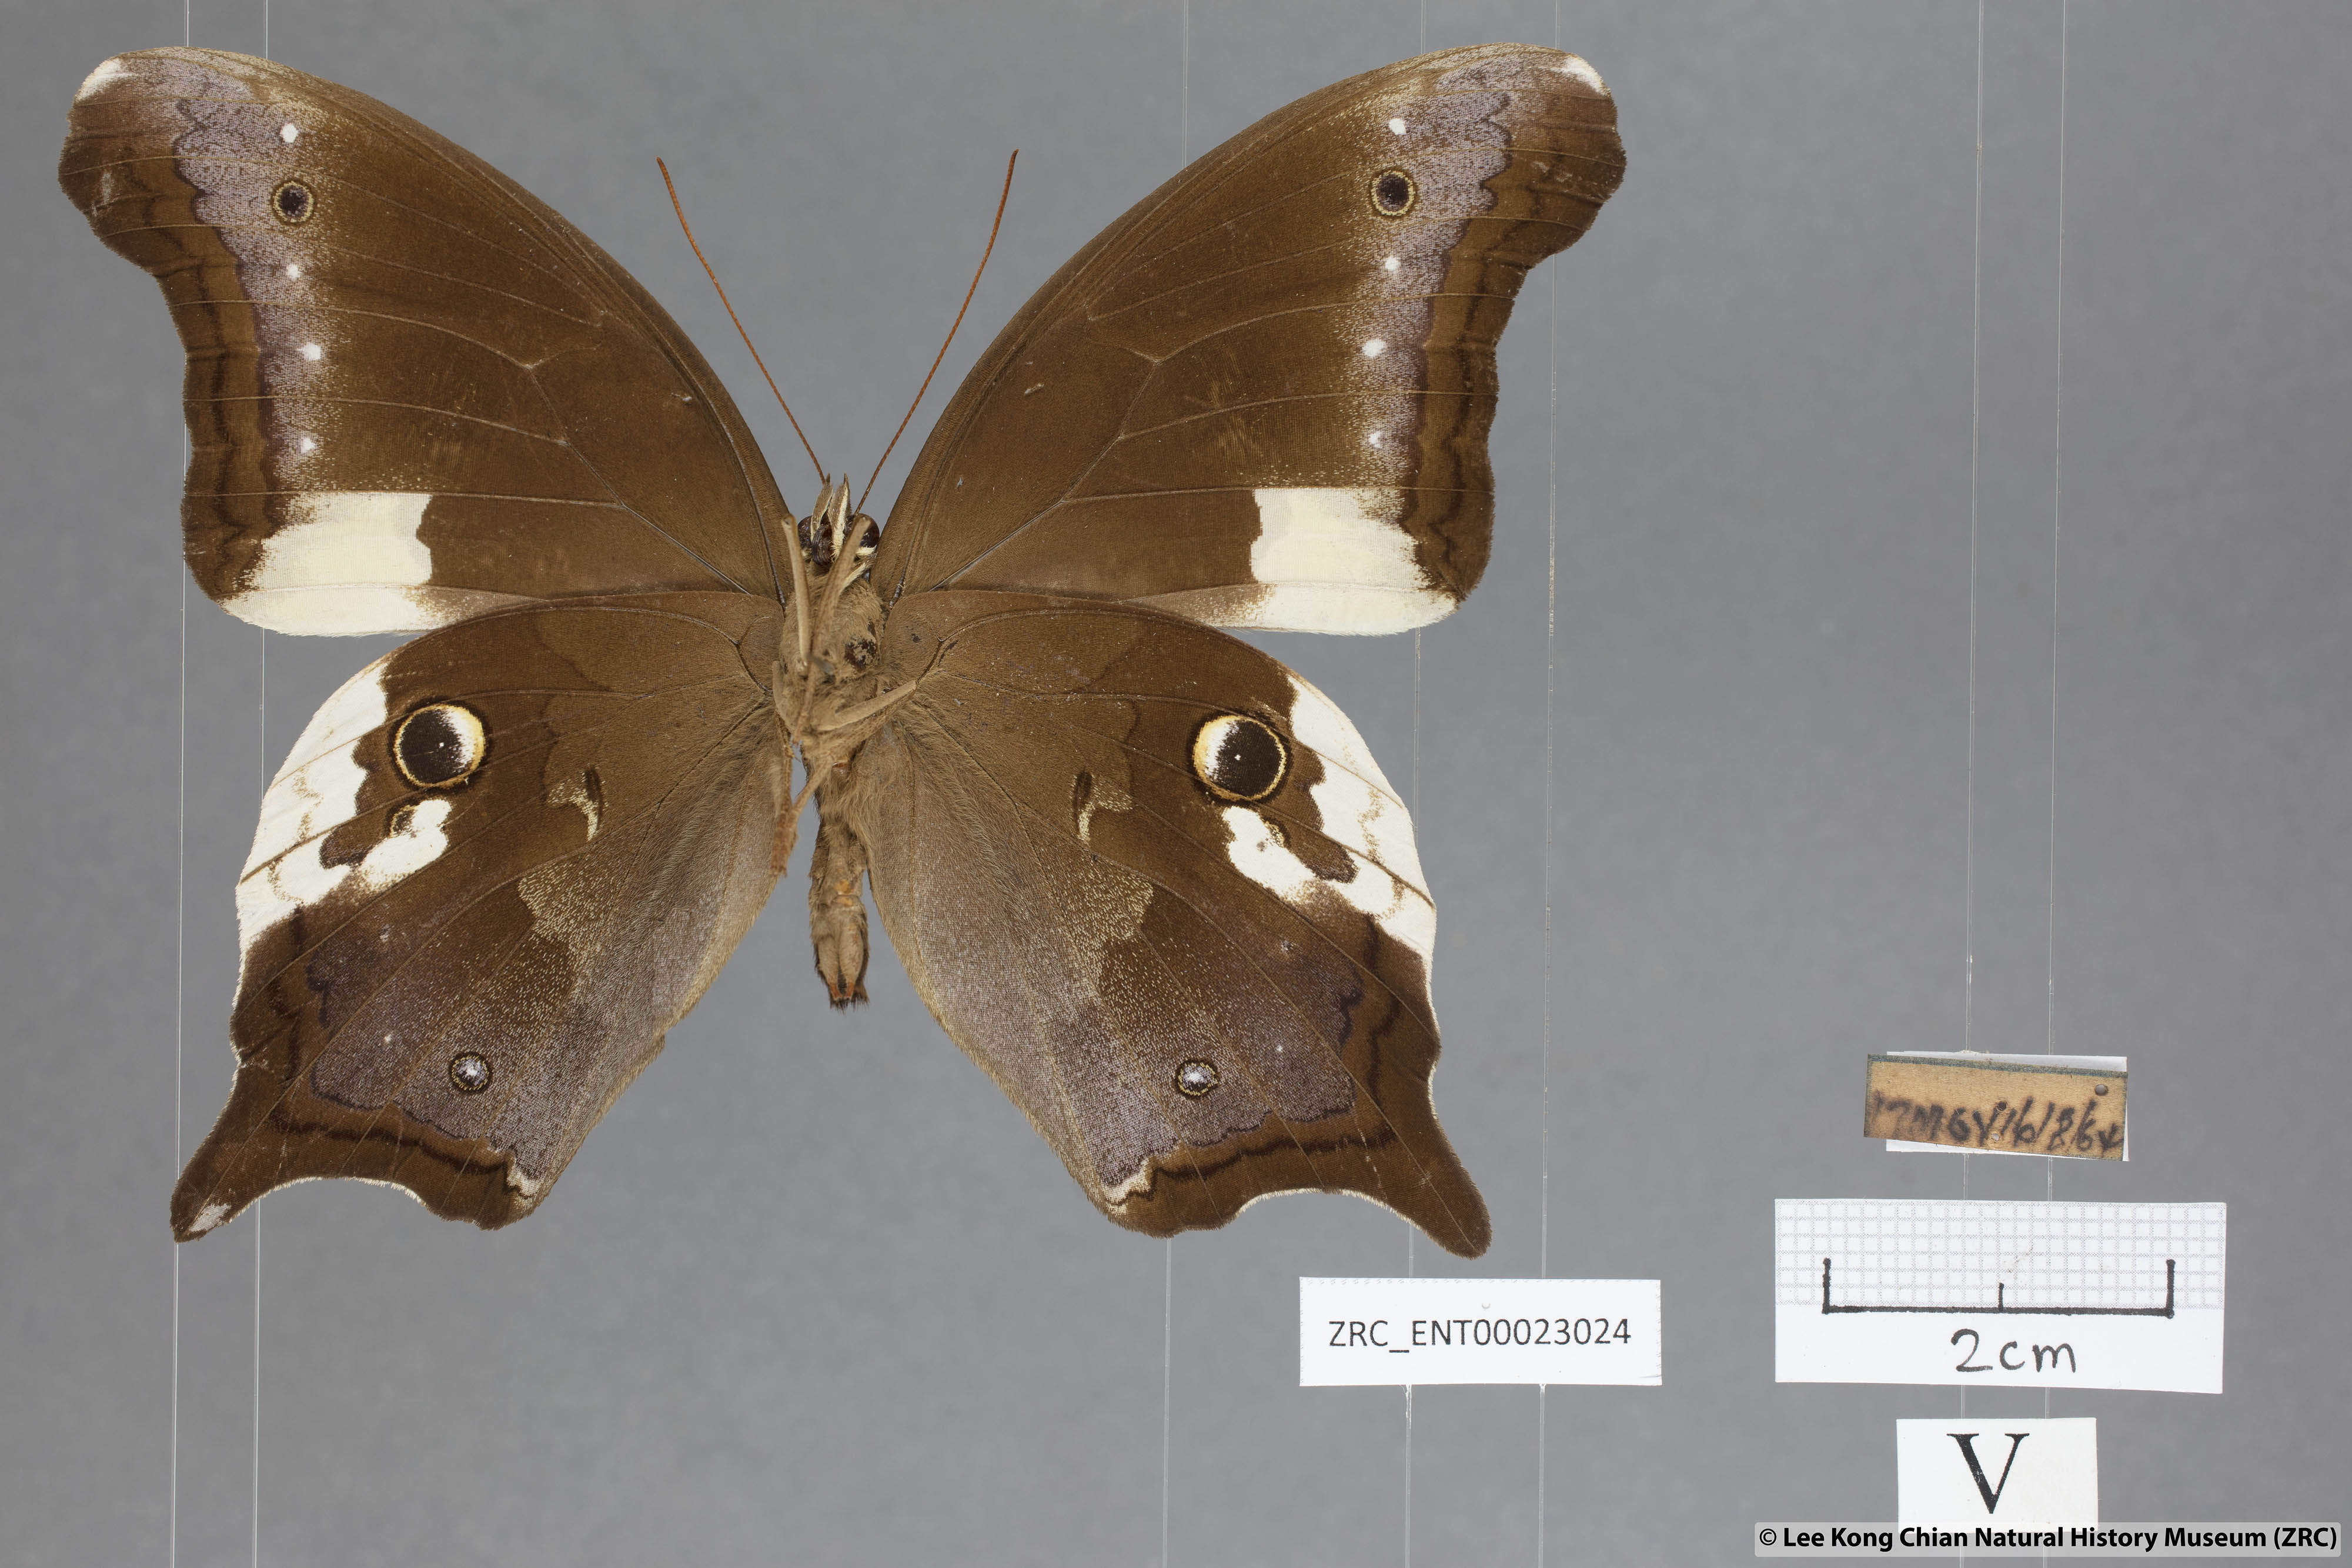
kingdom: Animalia
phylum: Arthropoda
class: Insecta
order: Lepidoptera
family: Nymphalidae
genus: Neorina
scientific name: Neorina lowii
